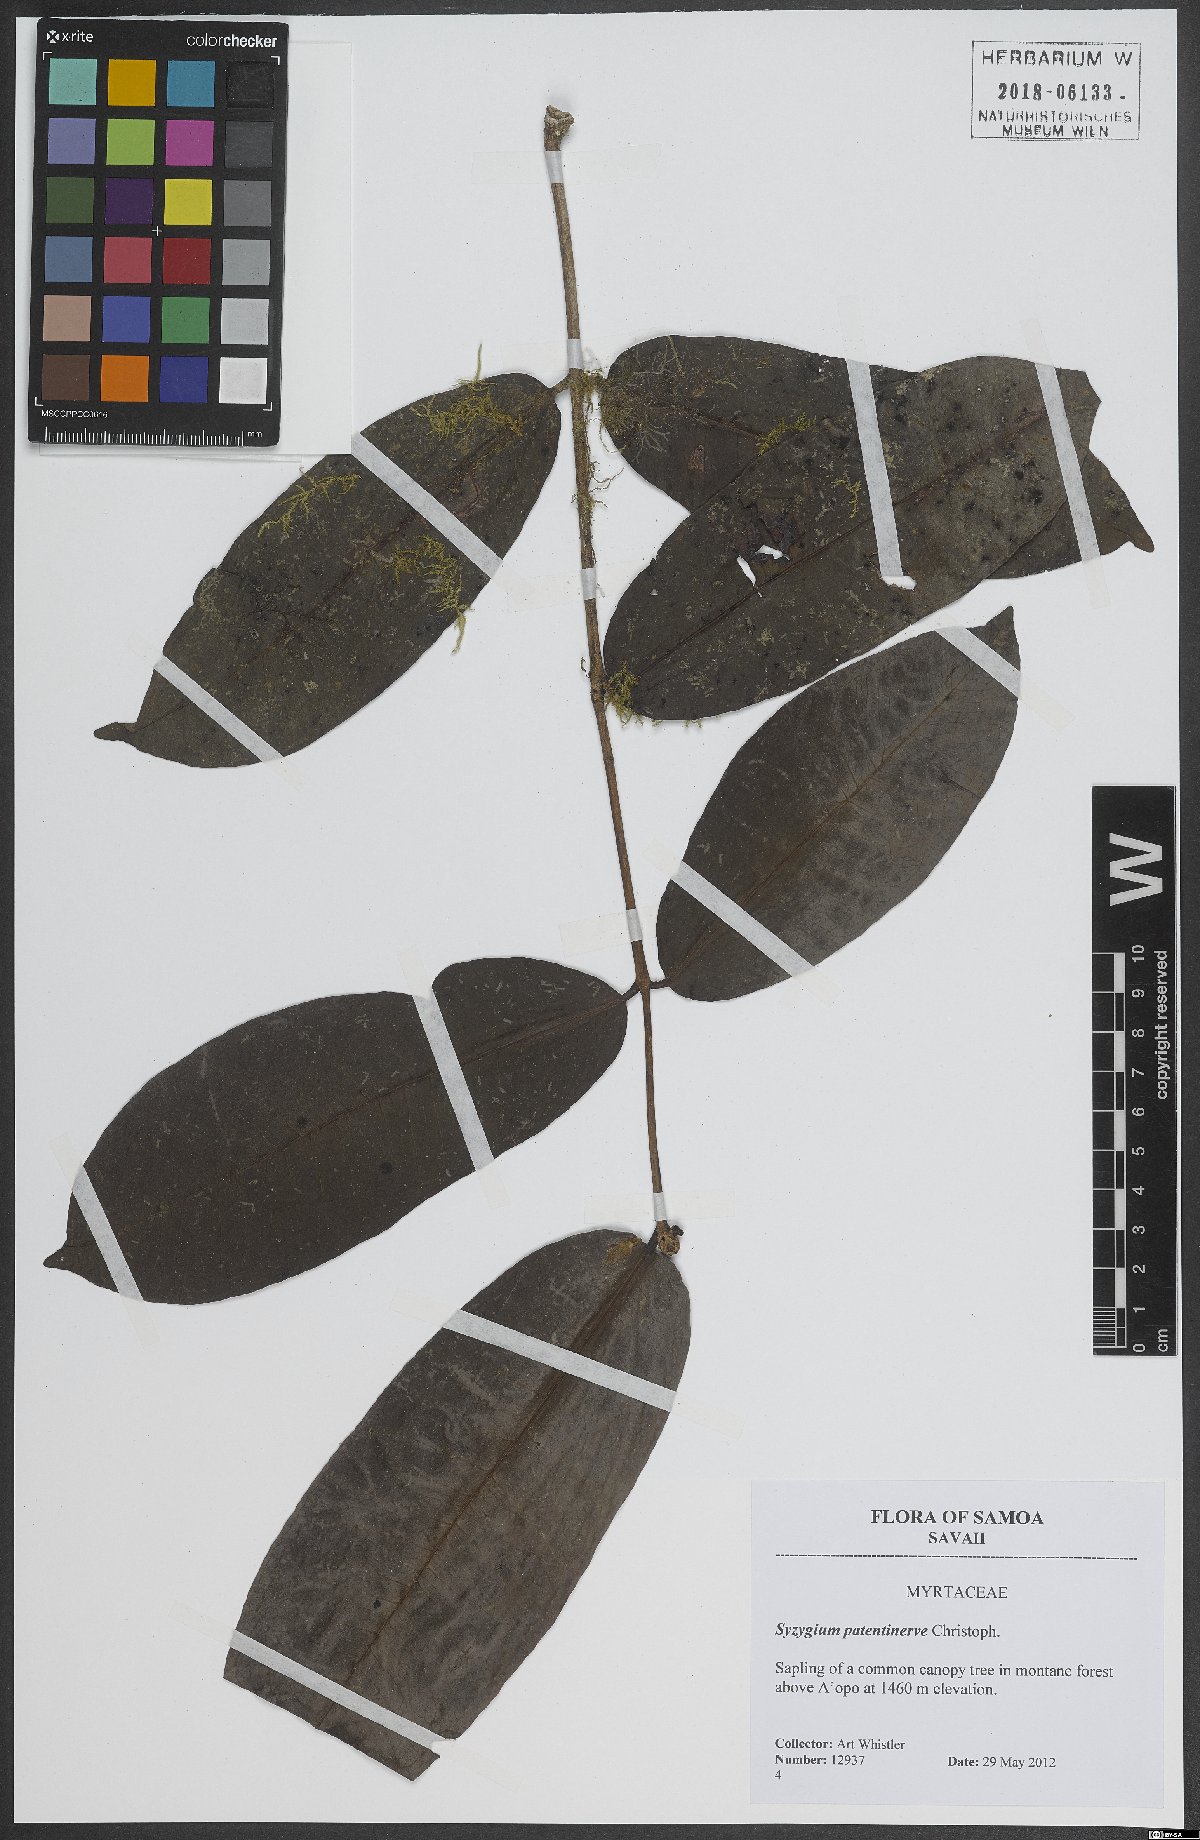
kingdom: Plantae
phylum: Tracheophyta
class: Magnoliopsida
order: Myrtales
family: Myrtaceae
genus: Syzygium
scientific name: Syzygium patentinerve
